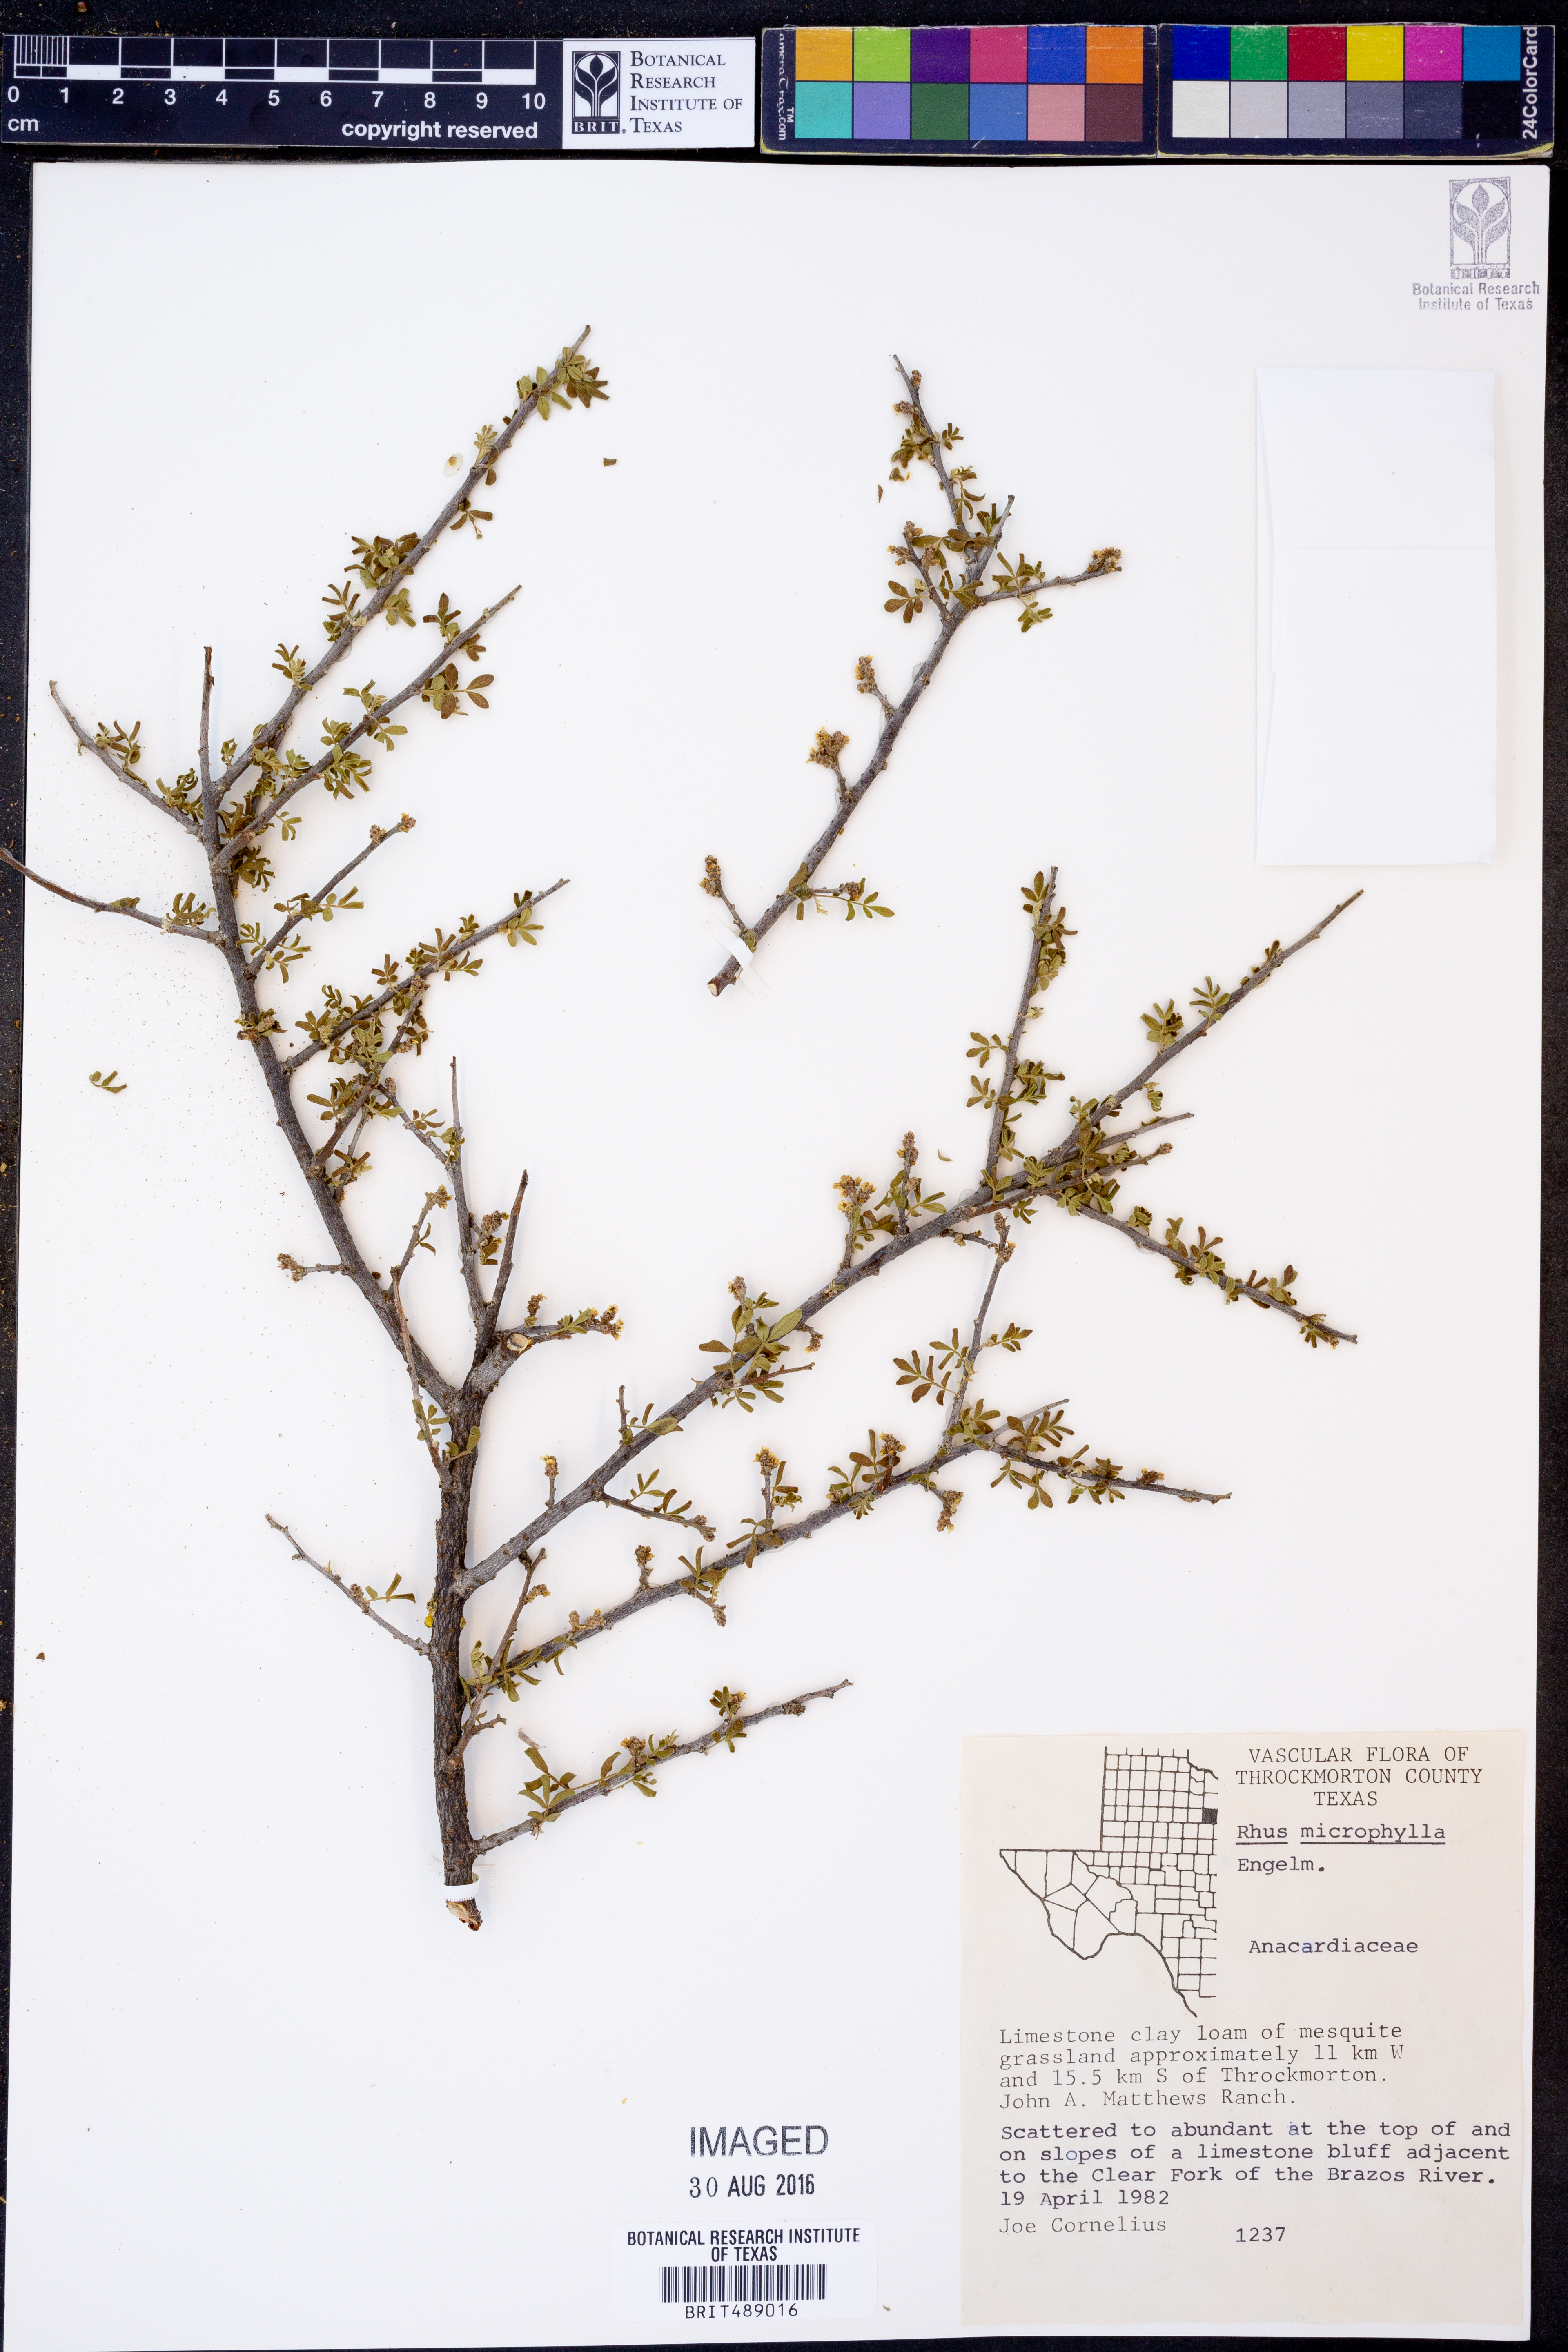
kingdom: Plantae
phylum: Tracheophyta
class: Magnoliopsida
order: Sapindales
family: Anacardiaceae
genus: Rhus
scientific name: Rhus microphylla
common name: Desert sumac
